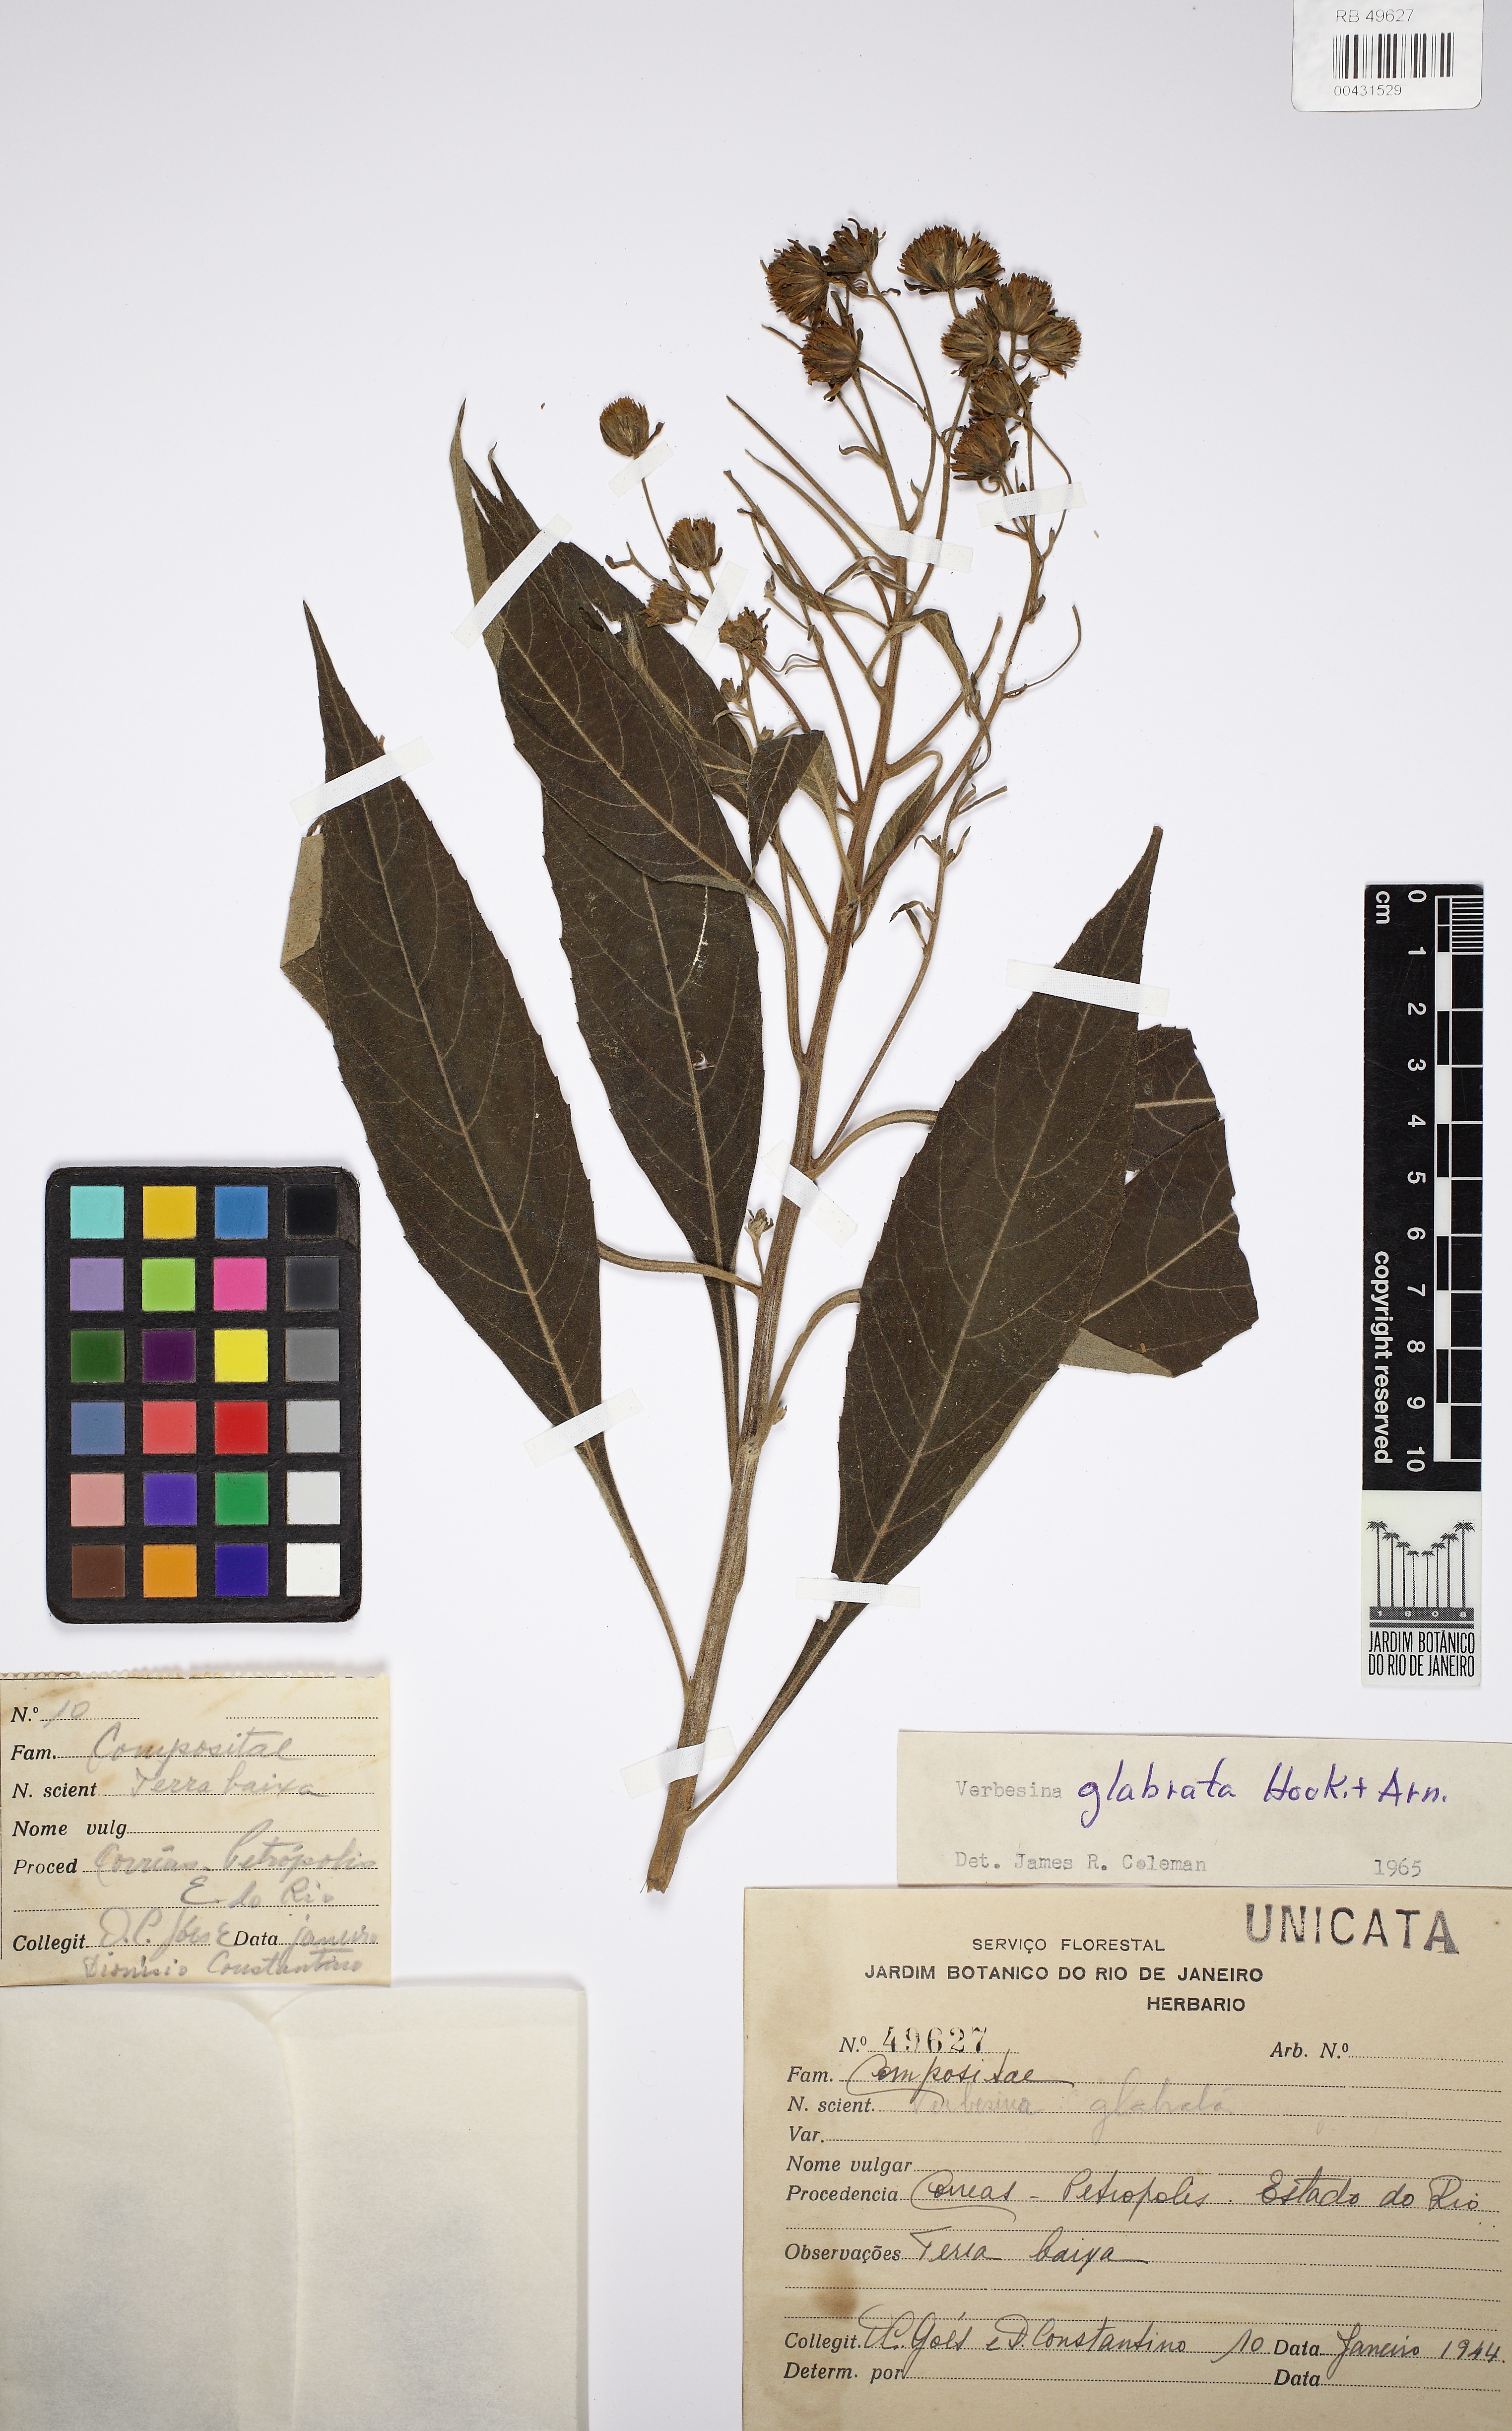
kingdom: Plantae
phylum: Tracheophyta
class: Magnoliopsida
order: Asterales
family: Asteraceae
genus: Verbesina
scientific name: Verbesina glabrata
